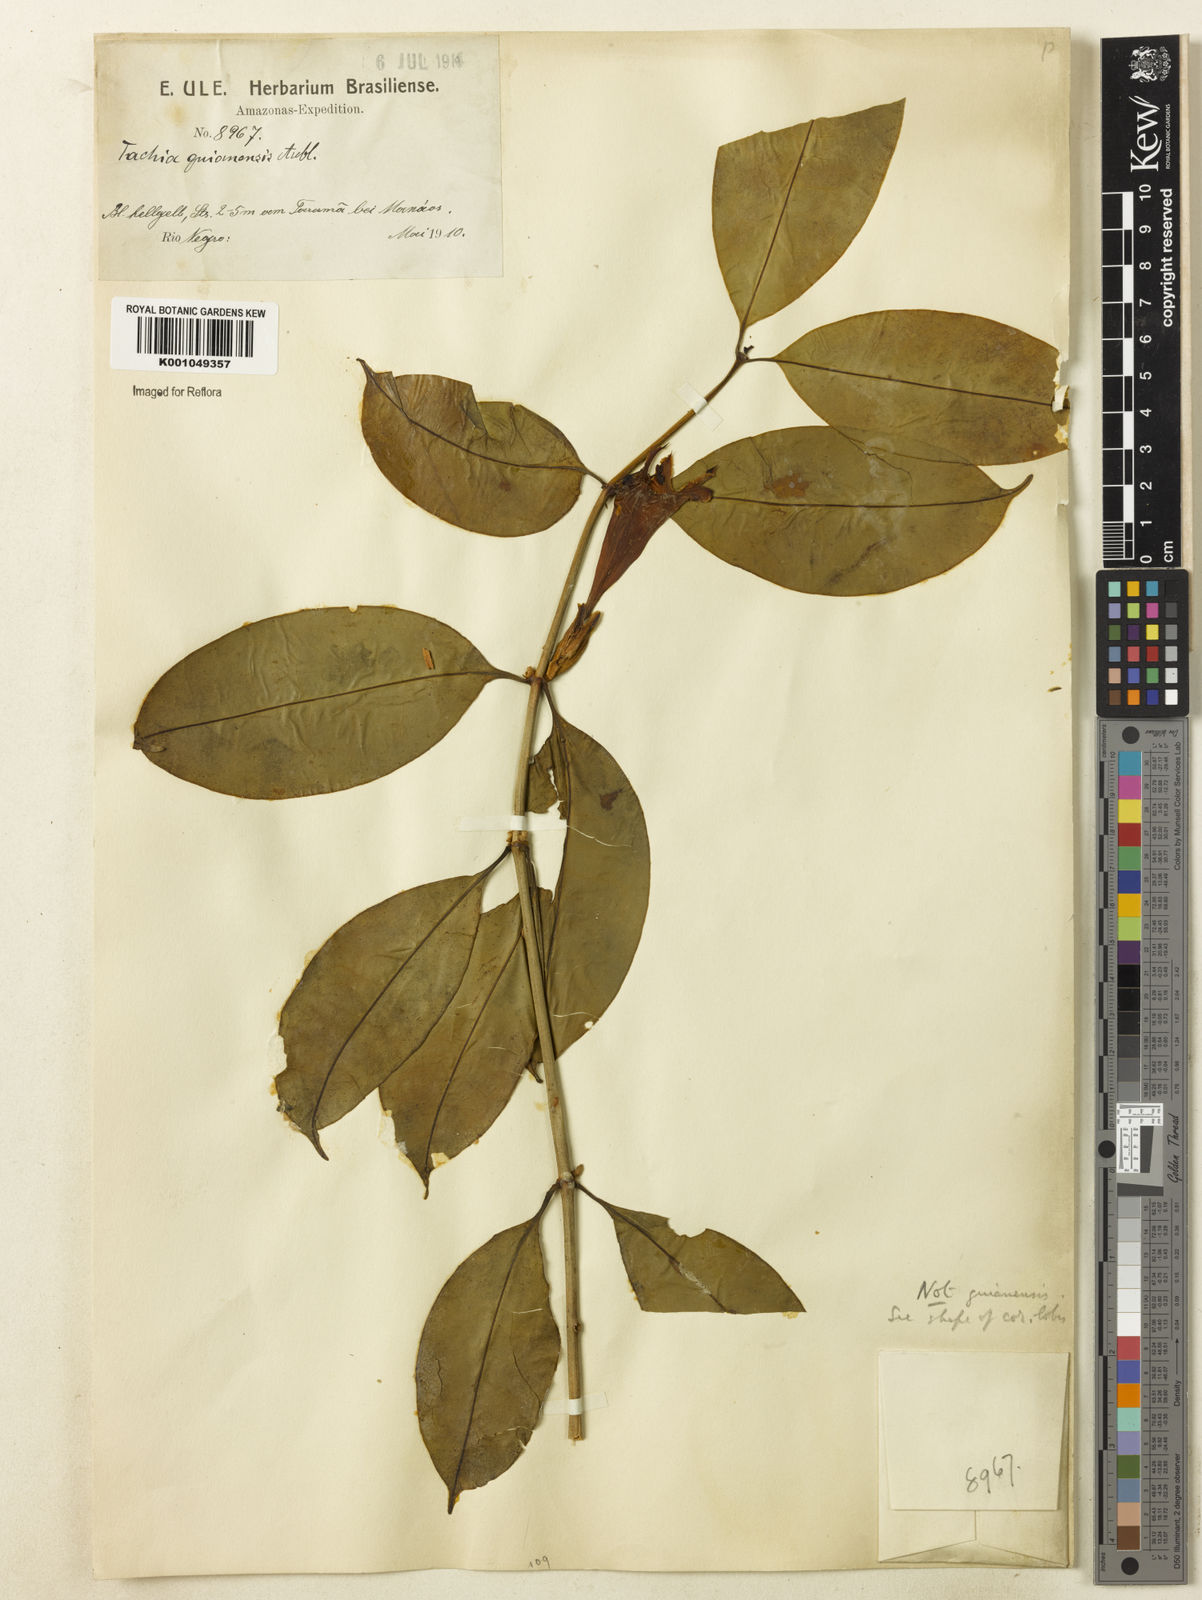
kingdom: Plantae
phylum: Tracheophyta
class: Magnoliopsida
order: Gentianales
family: Gentianaceae
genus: Tachia
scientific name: Tachia guianensis
